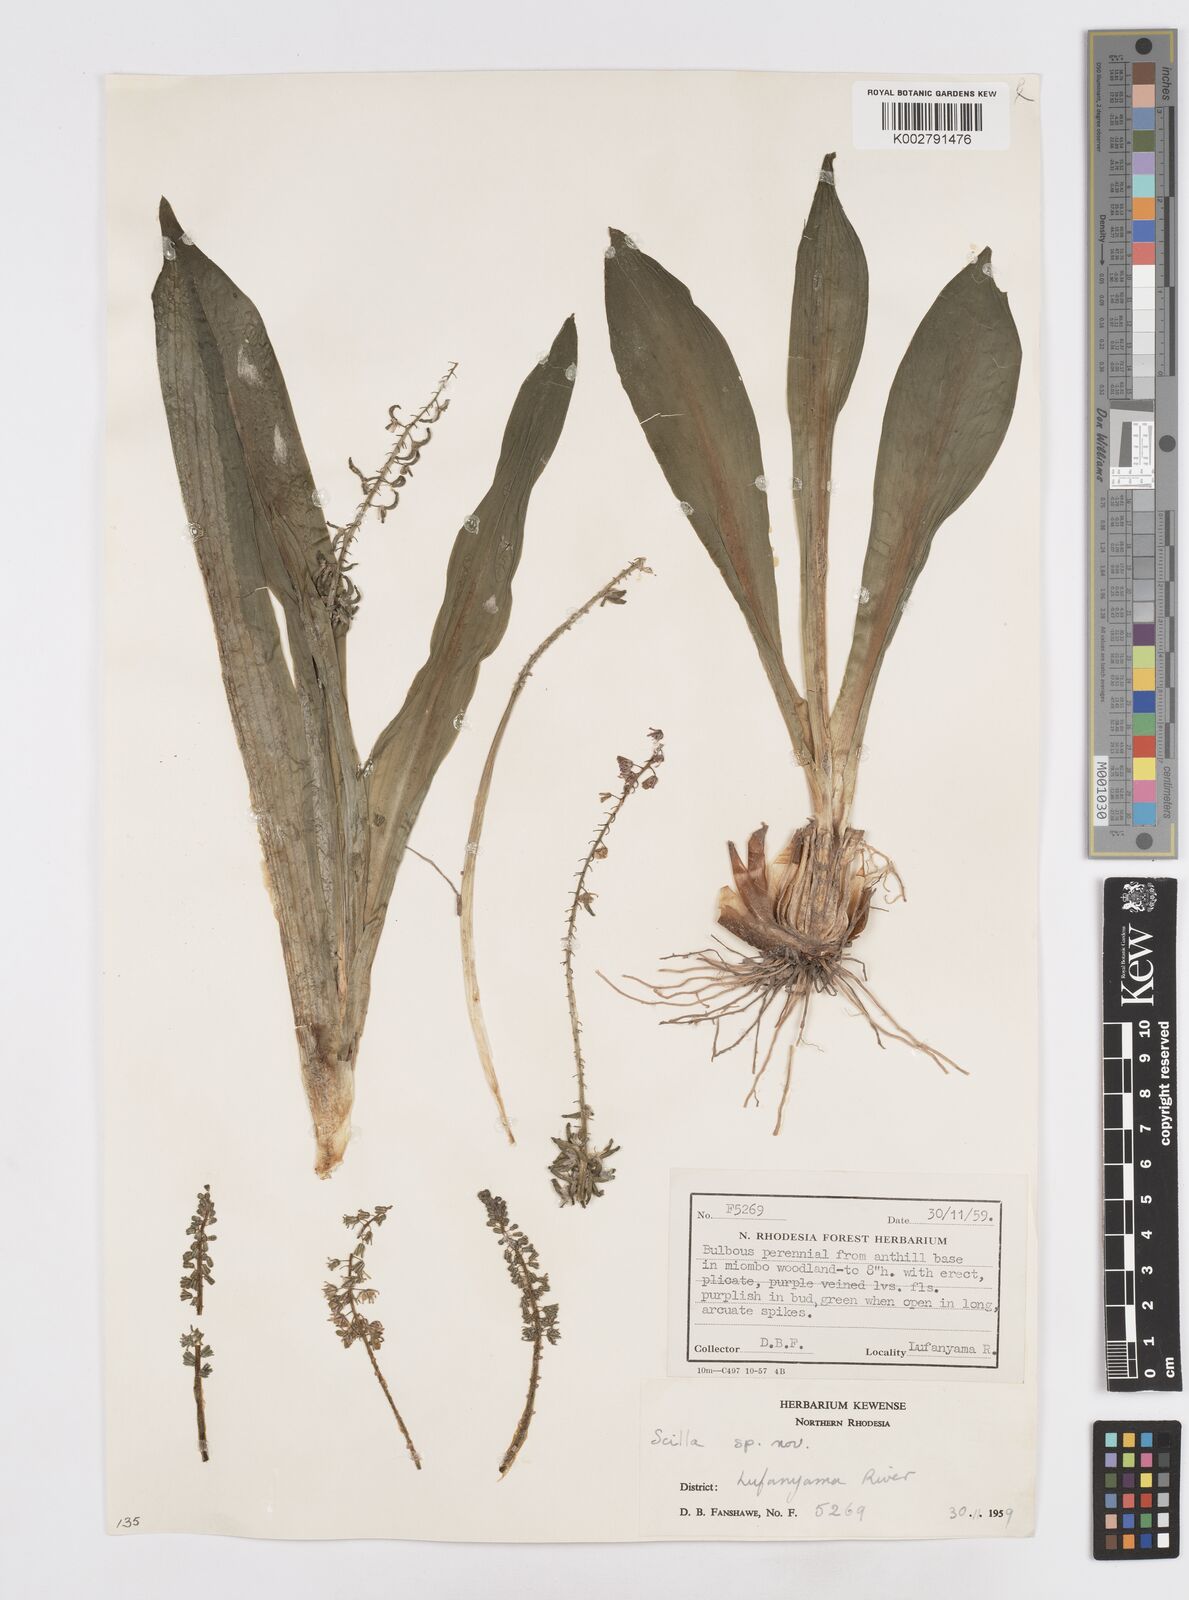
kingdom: Plantae
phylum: Tracheophyta
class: Liliopsida
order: Asparagales
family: Asparagaceae
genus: Scilla
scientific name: Scilla
